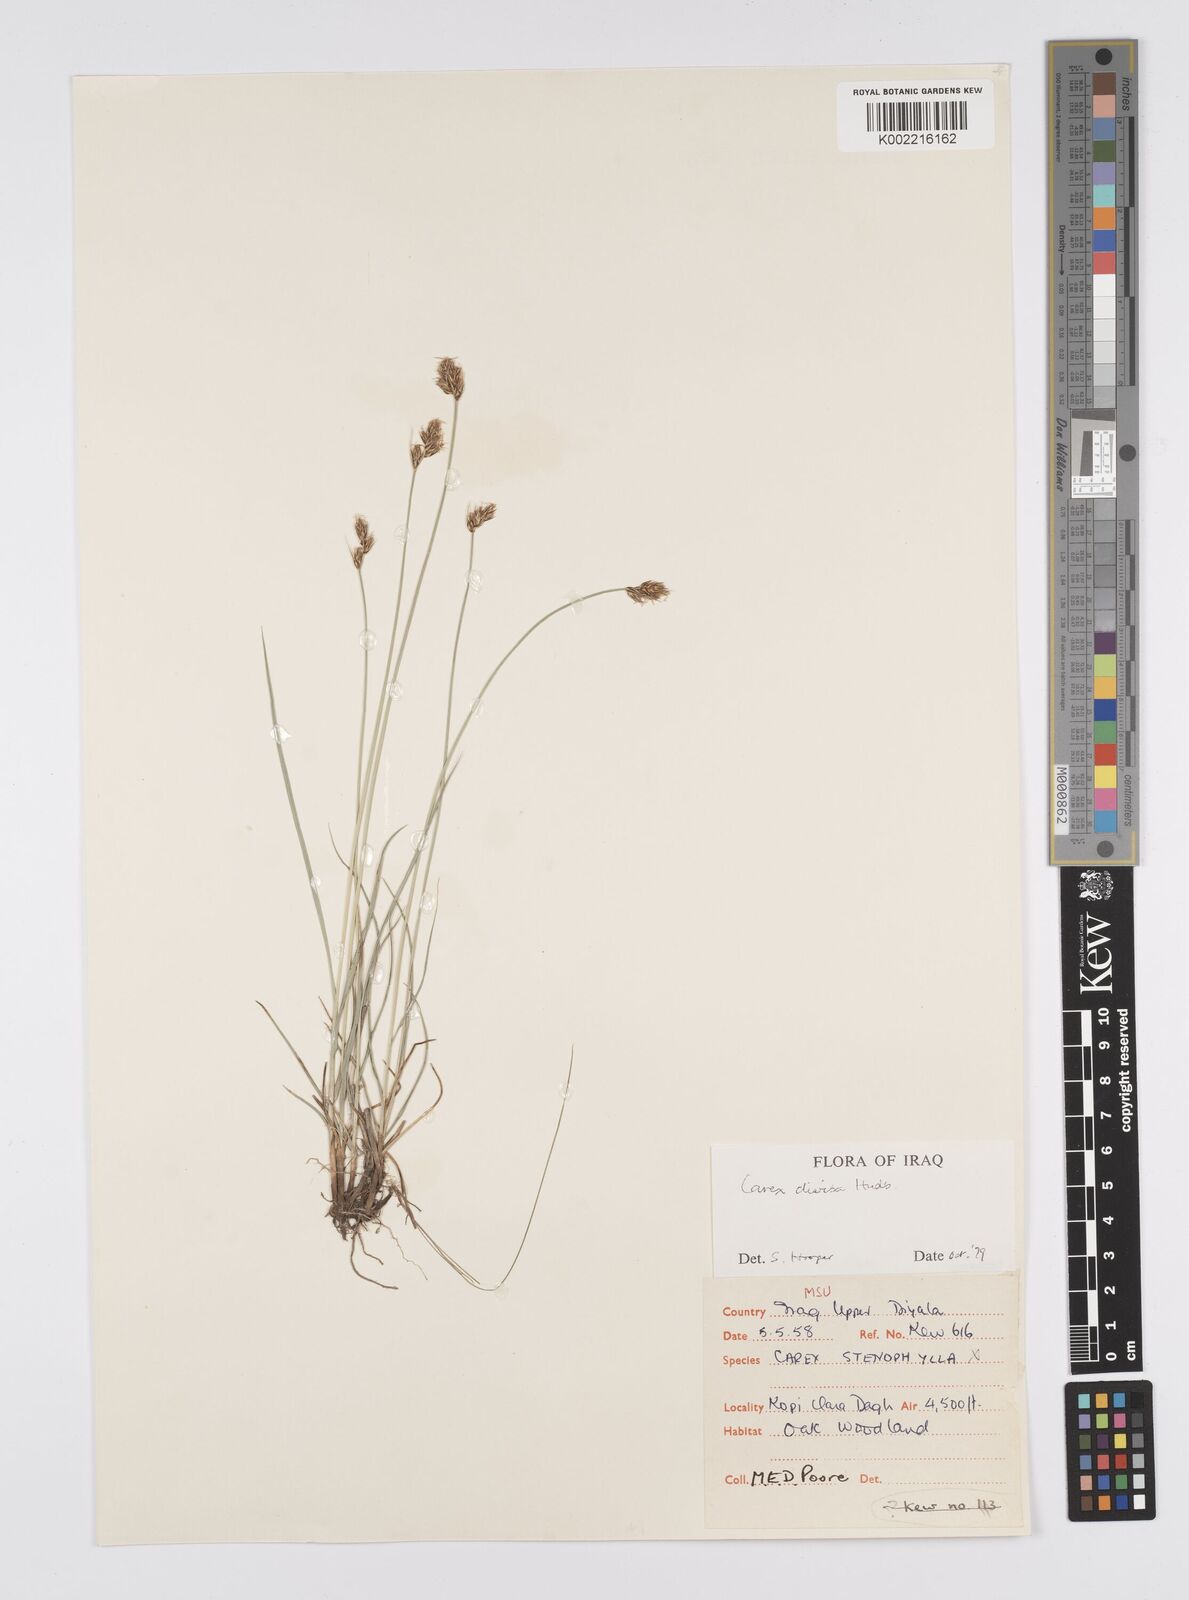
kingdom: Plantae
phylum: Tracheophyta
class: Liliopsida
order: Poales
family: Cyperaceae
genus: Carex
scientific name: Carex divisa
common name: Divided sedge
